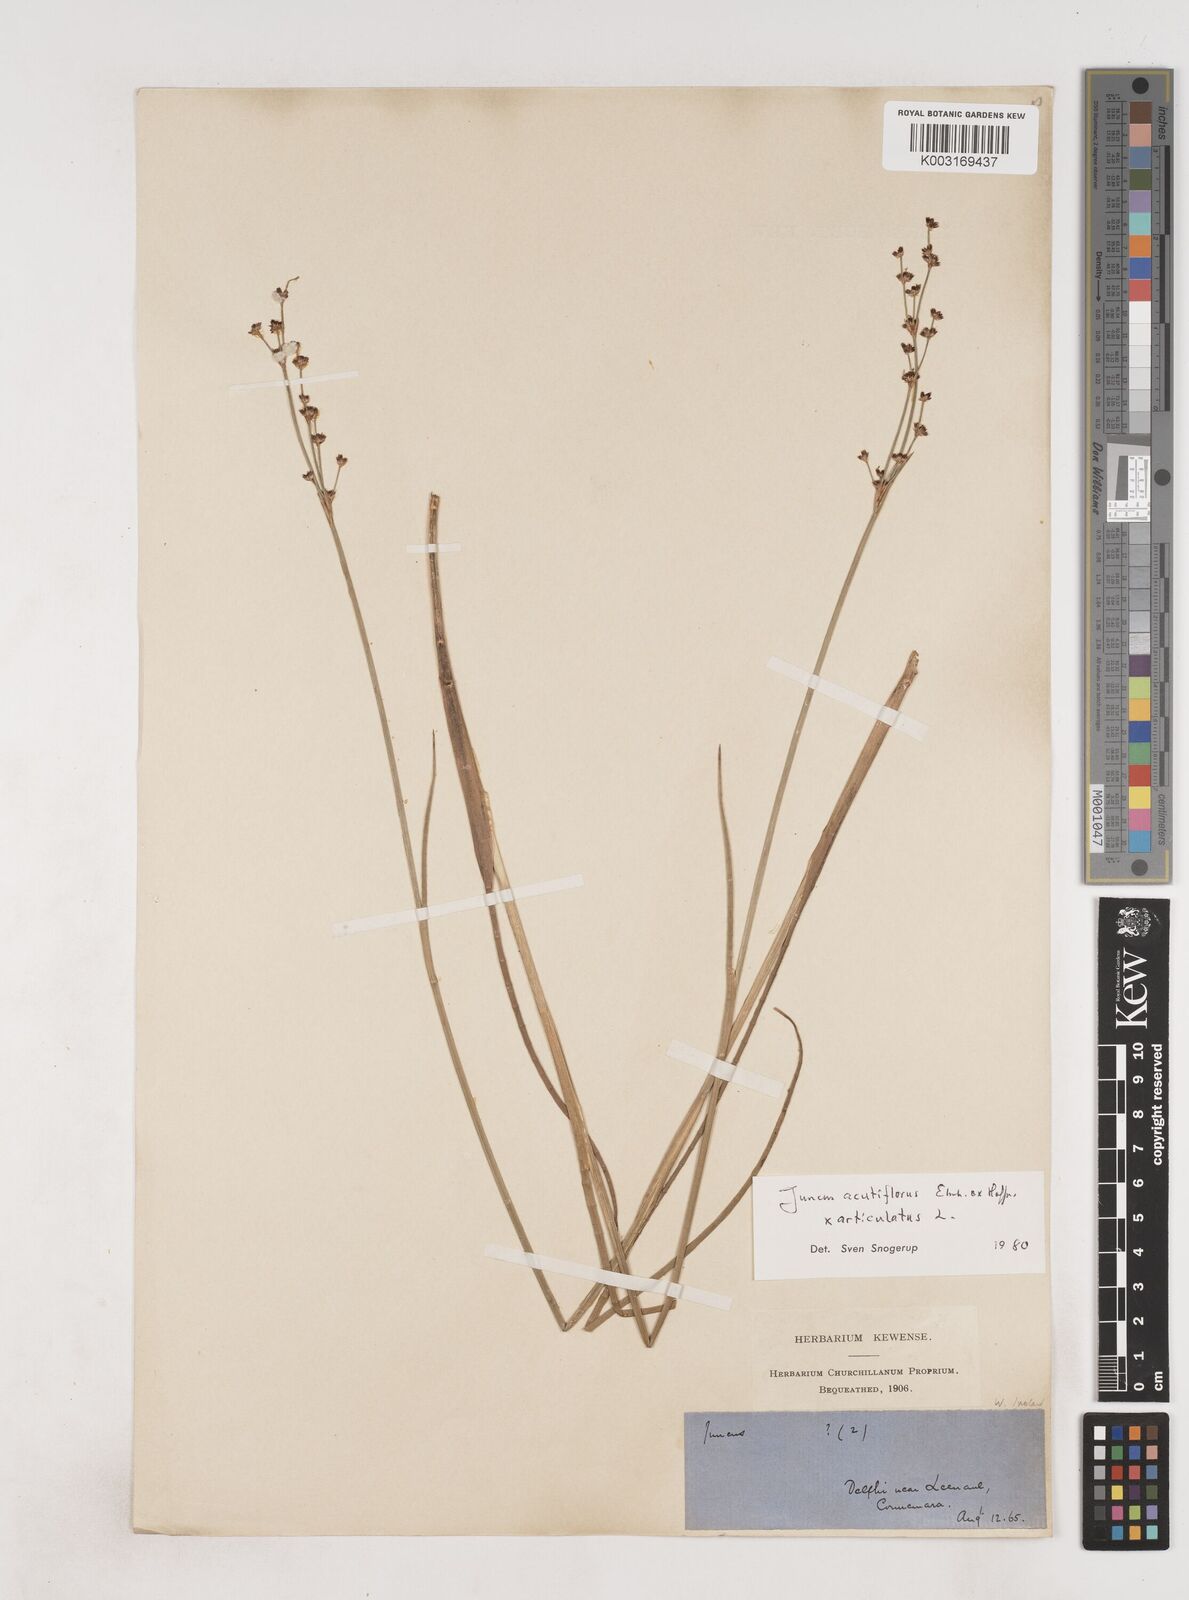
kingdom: Plantae
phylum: Tracheophyta
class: Liliopsida
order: Poales
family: Juncaceae
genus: Juncus
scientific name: Juncus acutiflorus
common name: Sharp-flowered rush
